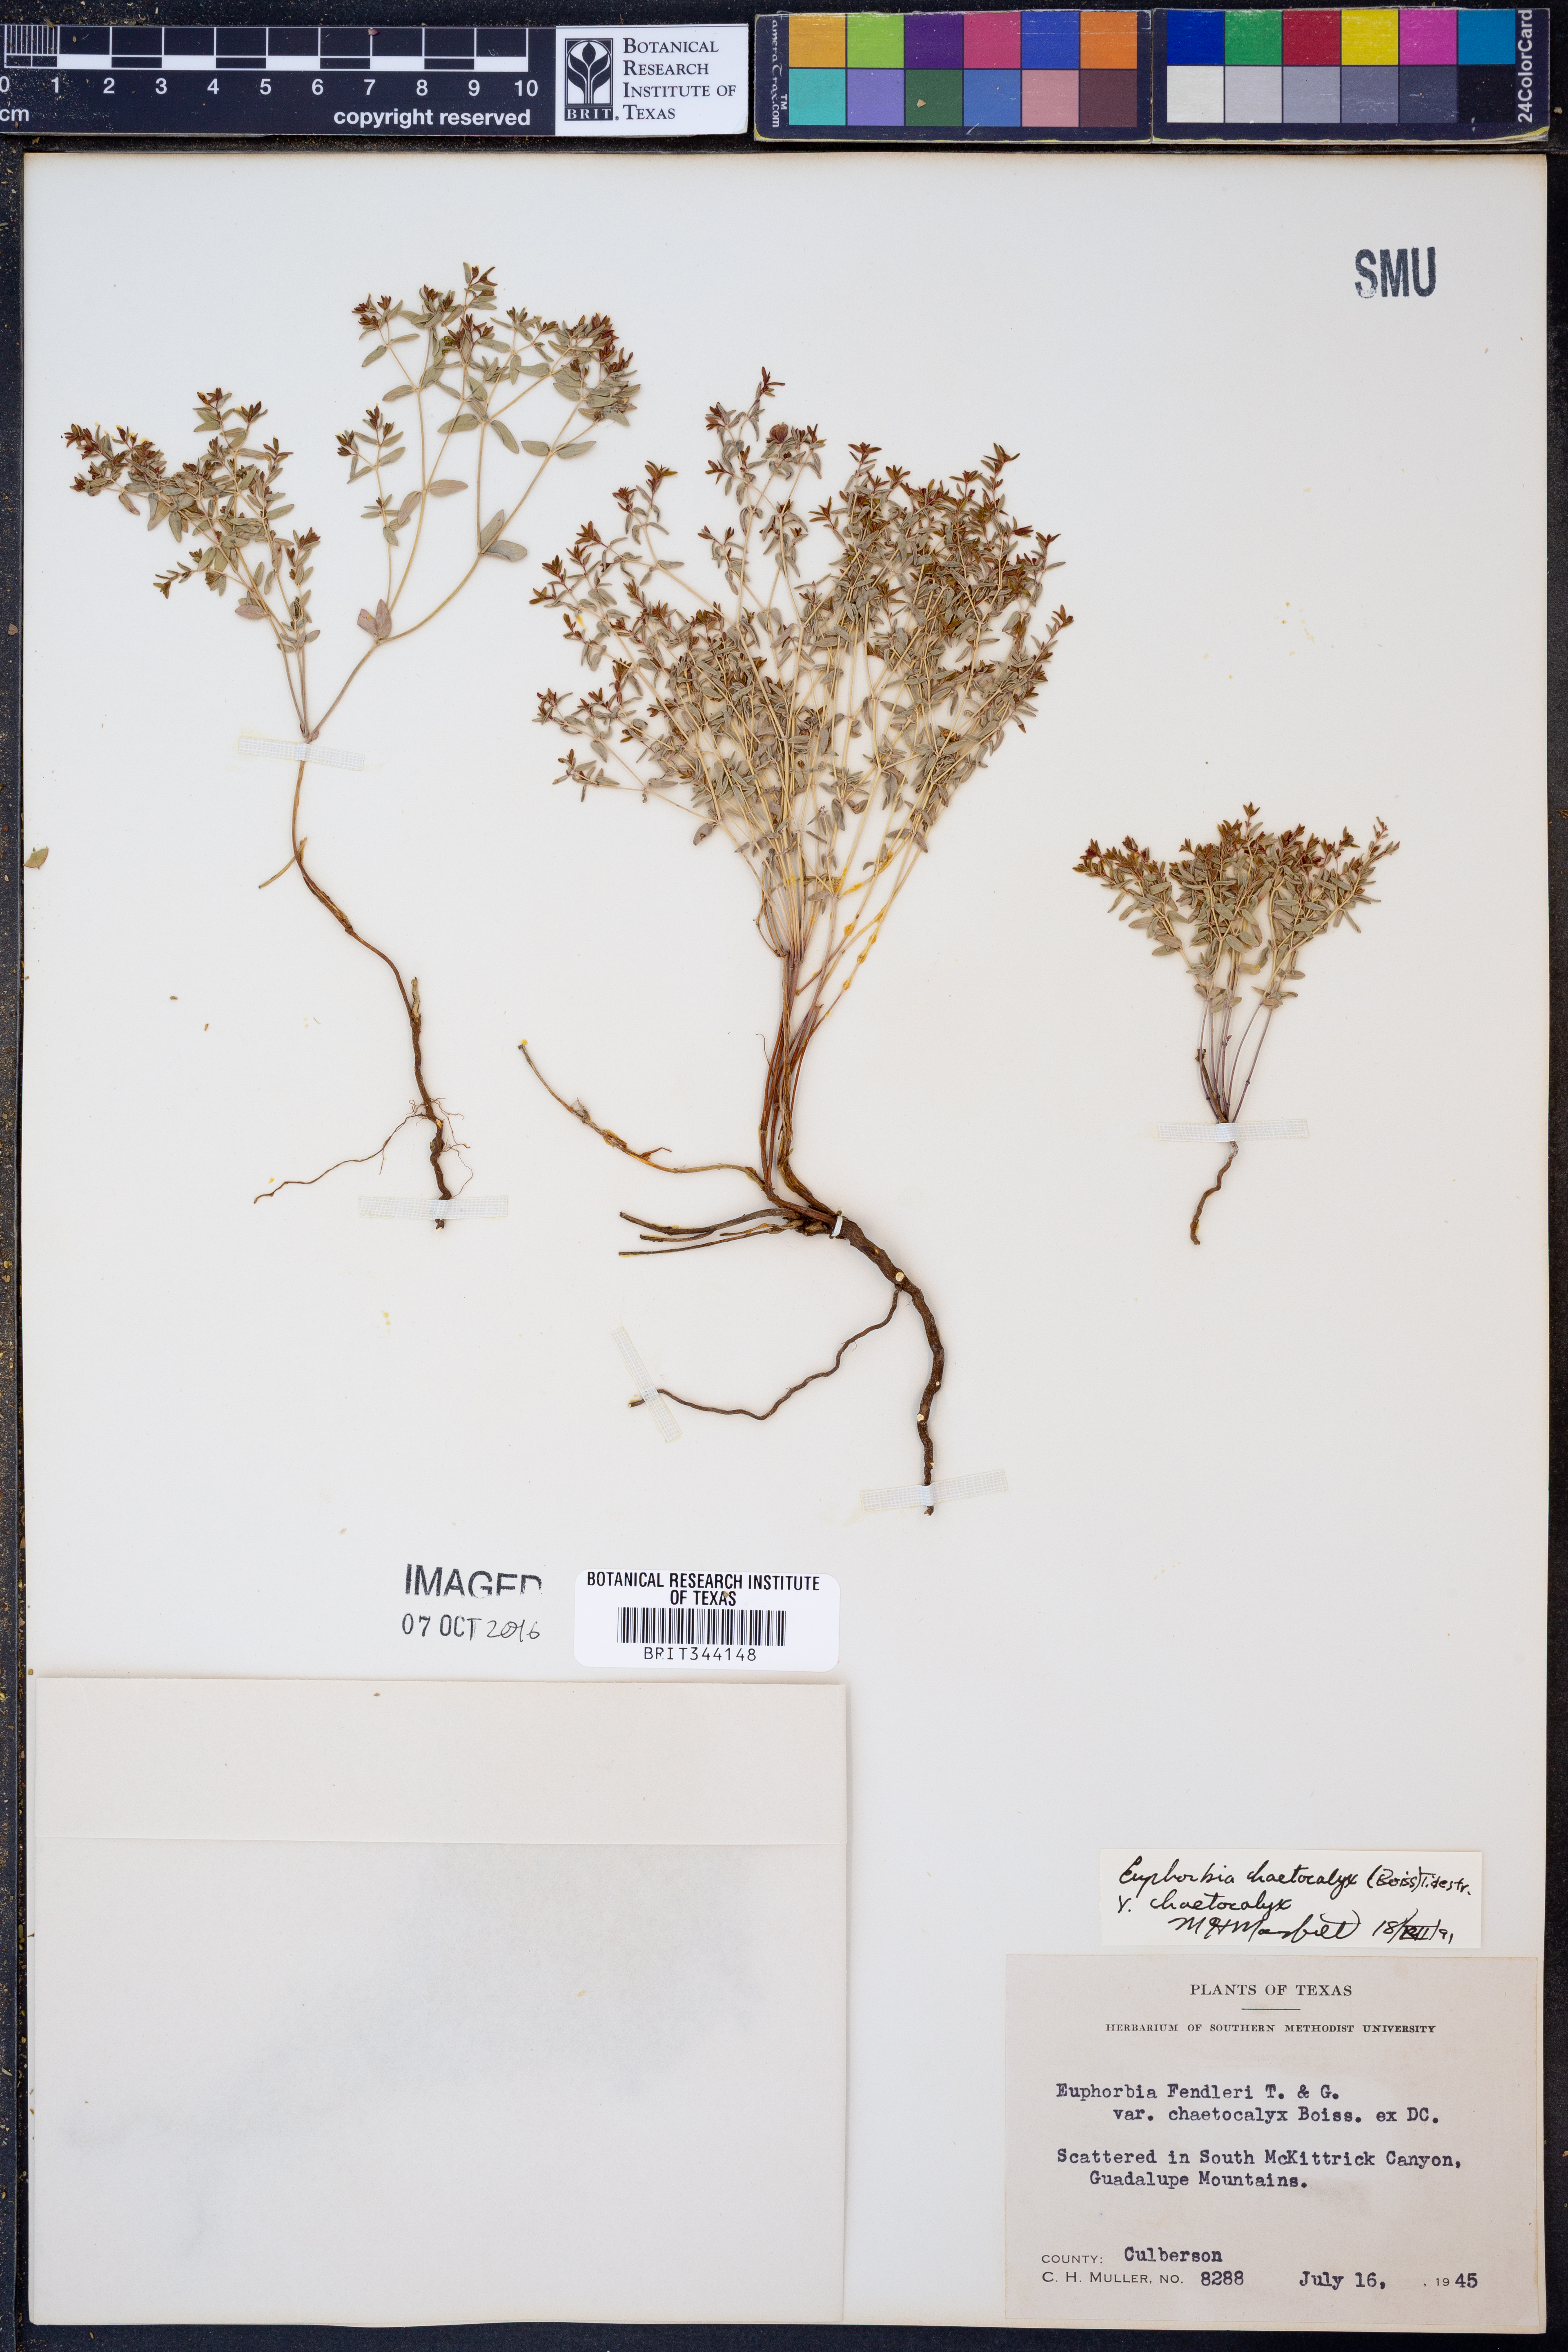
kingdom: Plantae
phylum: Tracheophyta
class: Magnoliopsida
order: Malpighiales
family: Euphorbiaceae
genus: Euphorbia
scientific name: Euphorbia chaetocalyx
